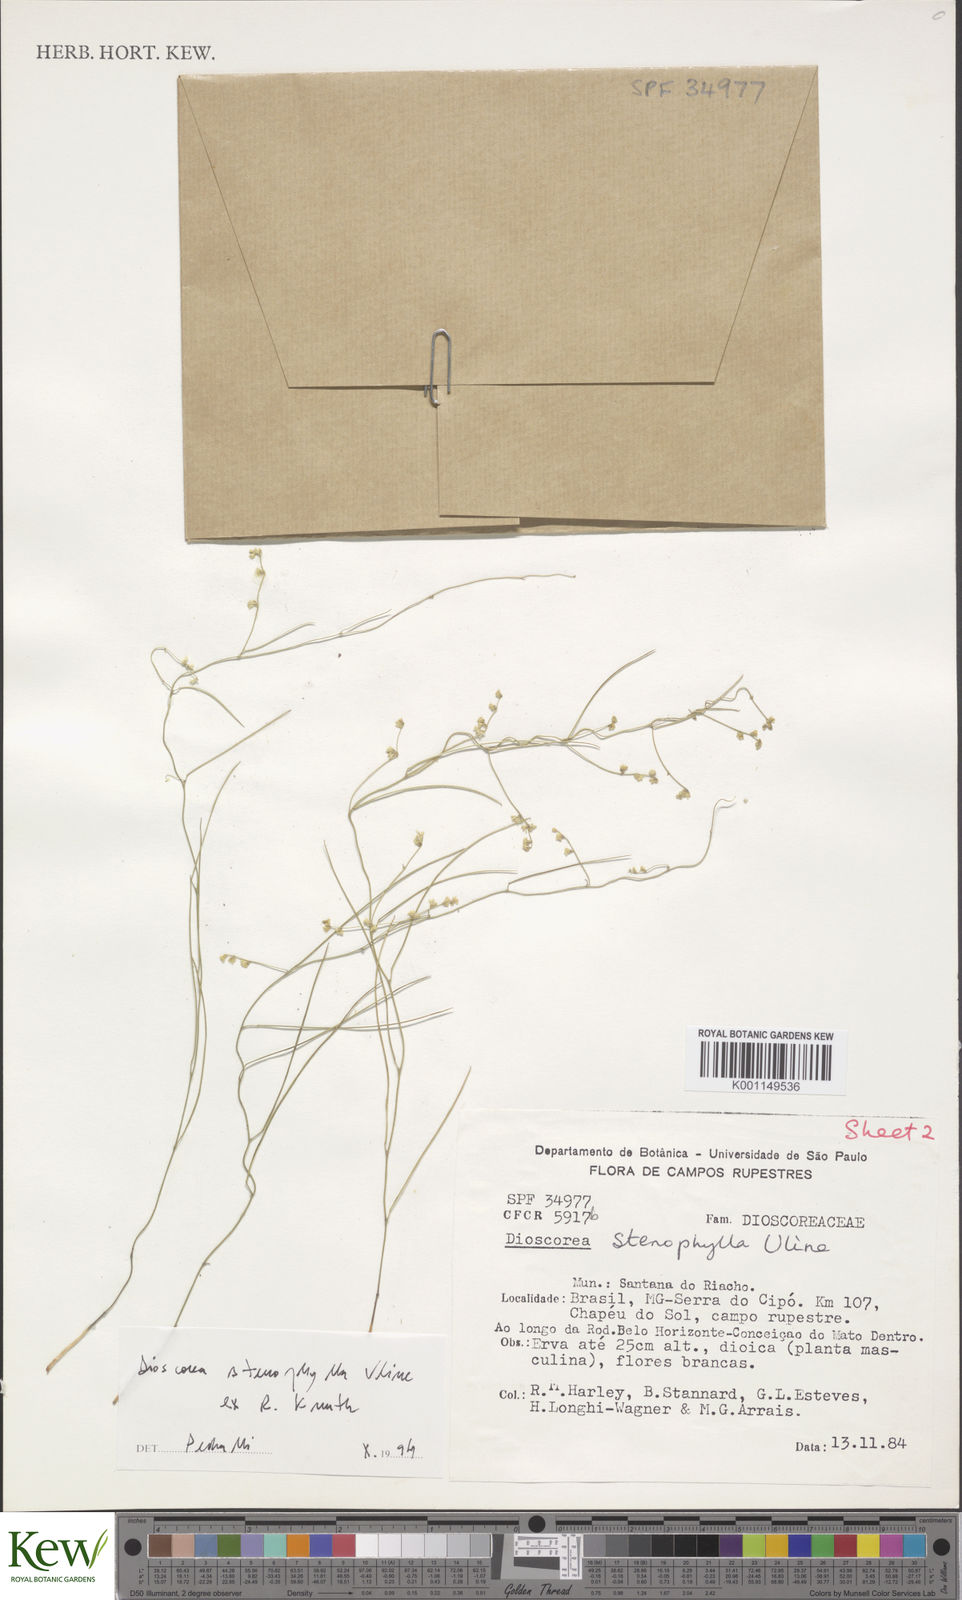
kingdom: Plantae
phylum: Tracheophyta
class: Liliopsida
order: Dioscoreales
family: Dioscoreaceae
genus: Dioscorea
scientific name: Dioscorea stenophylla
